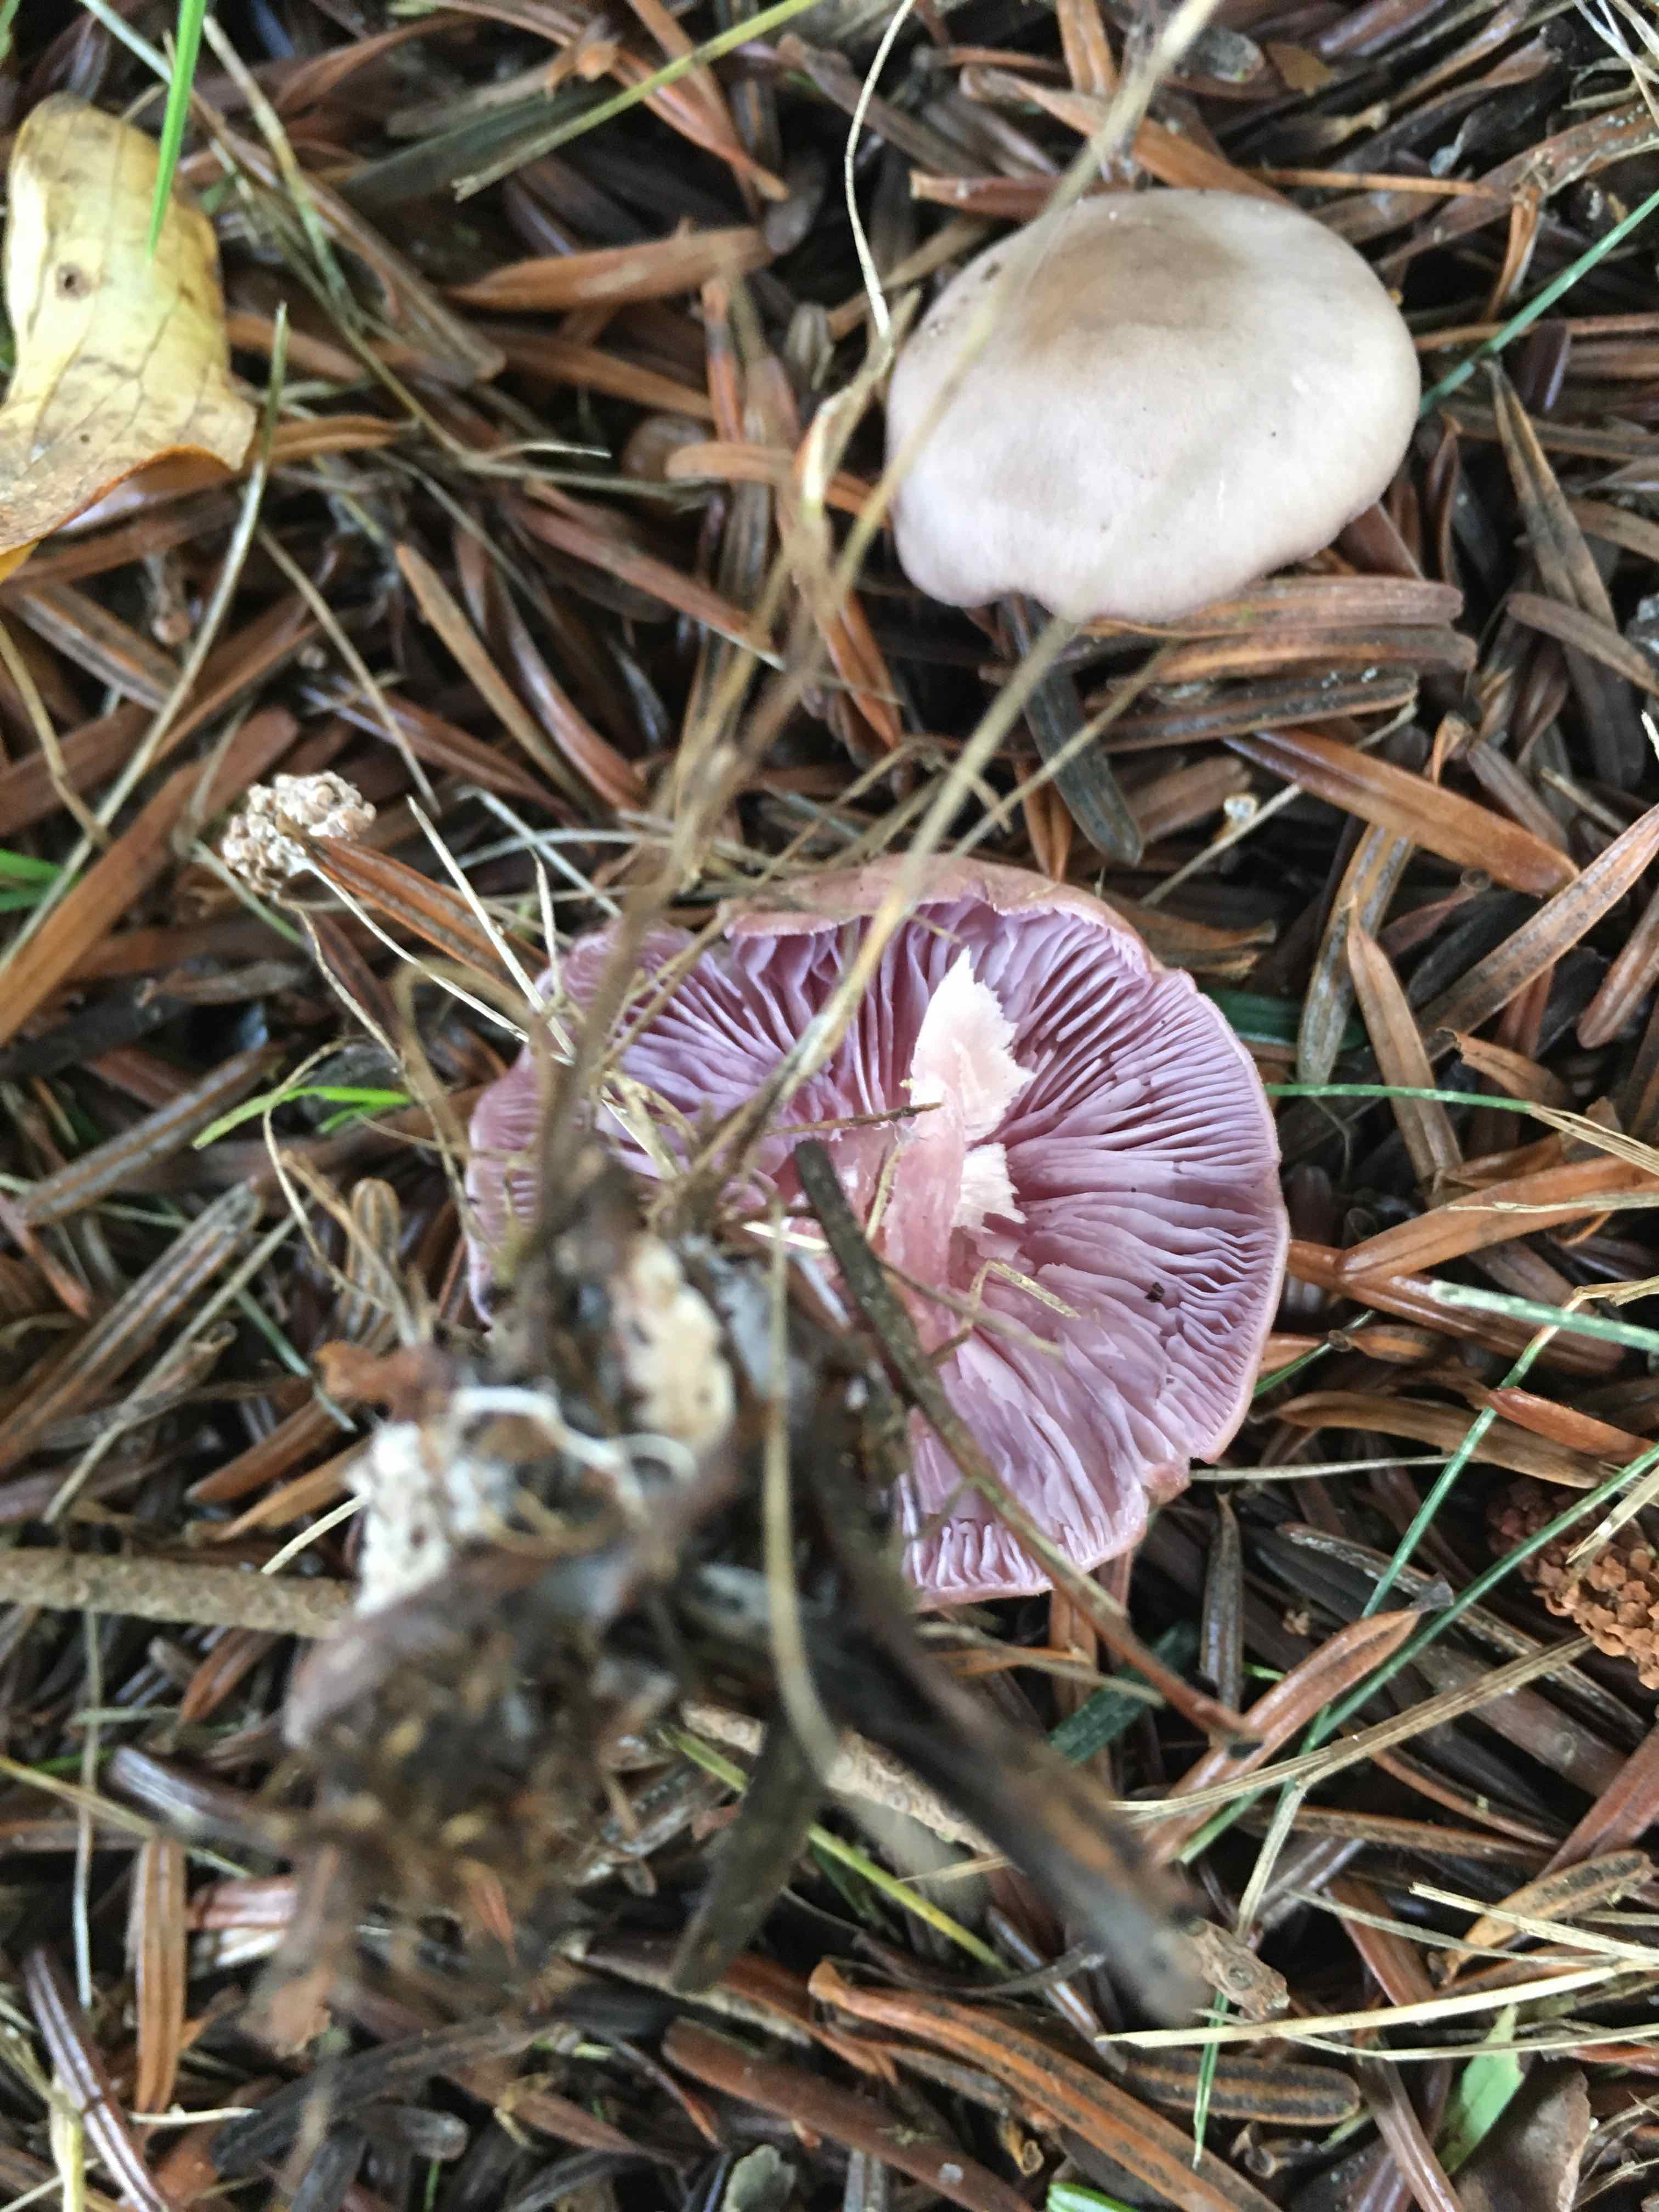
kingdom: Fungi
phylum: Basidiomycota
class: Agaricomycetes
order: Agaricales
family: Tricholomataceae
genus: Lepista
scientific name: Lepista nuda
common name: violet hekseringshat
